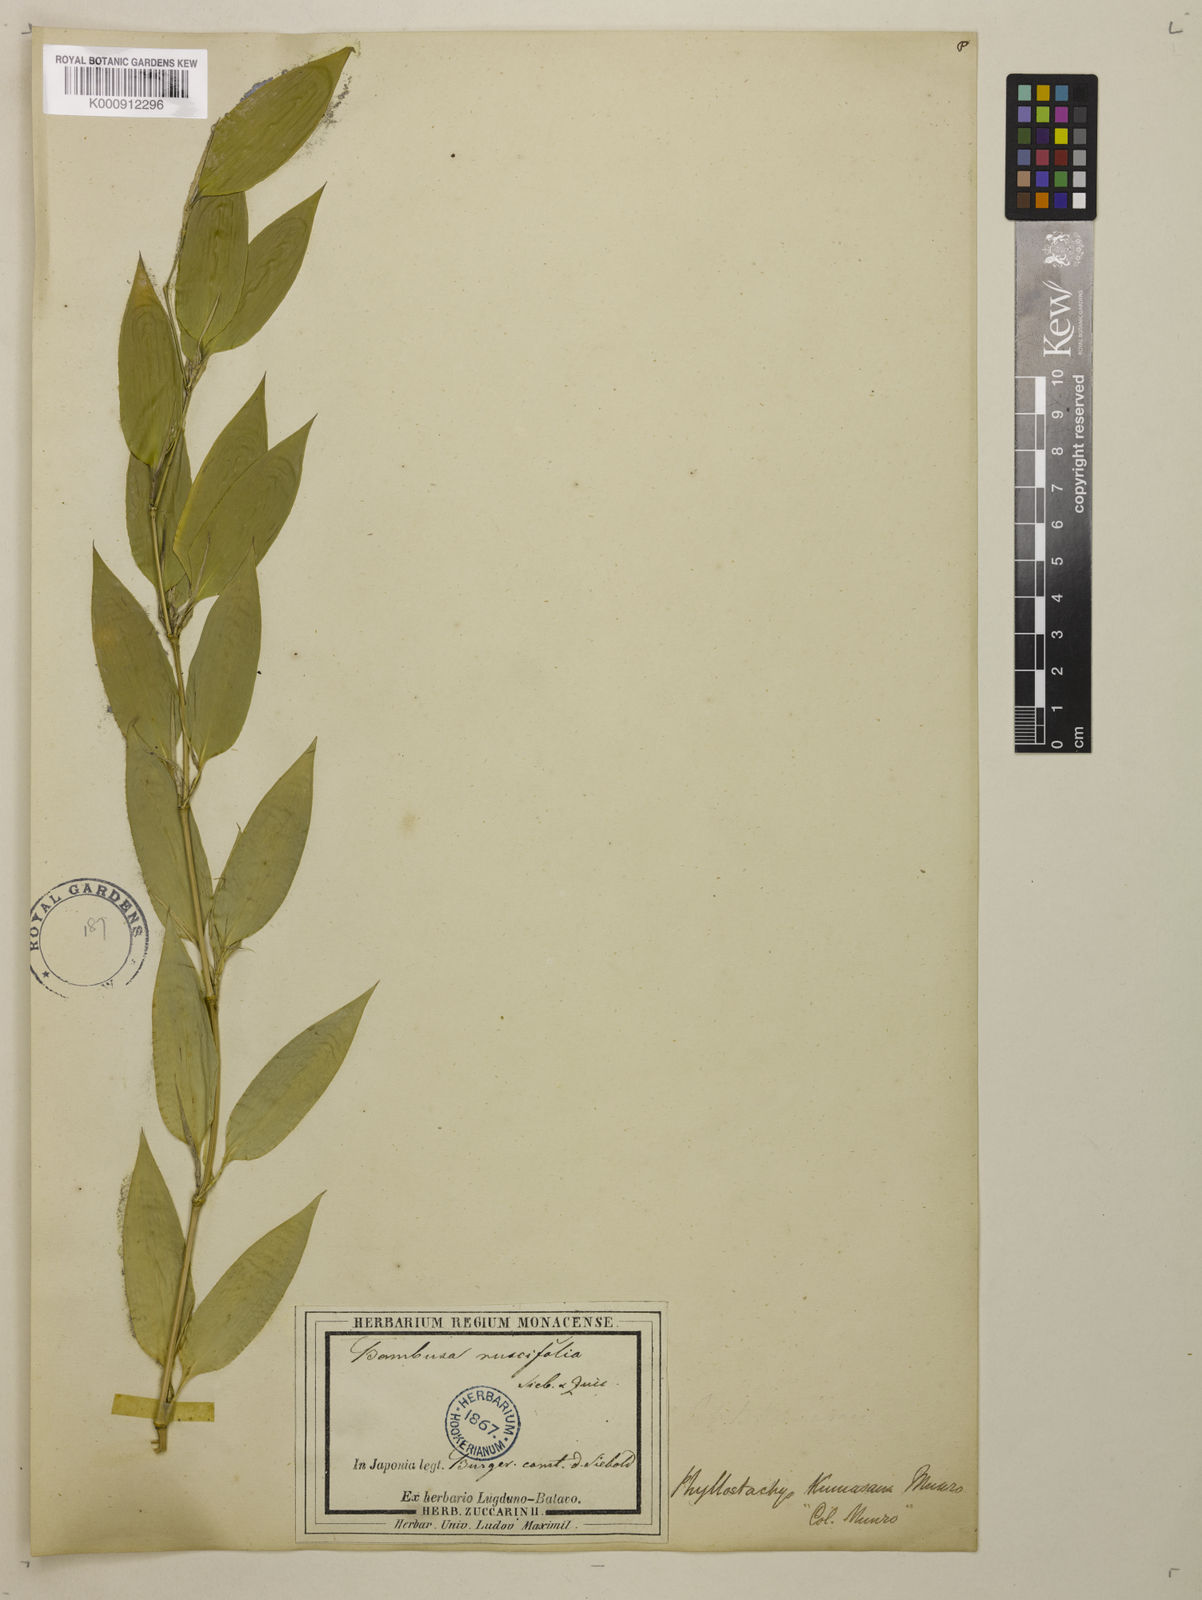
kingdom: Plantae
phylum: Tracheophyta
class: Liliopsida
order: Poales
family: Poaceae
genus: Shibataea
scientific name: Shibataea
